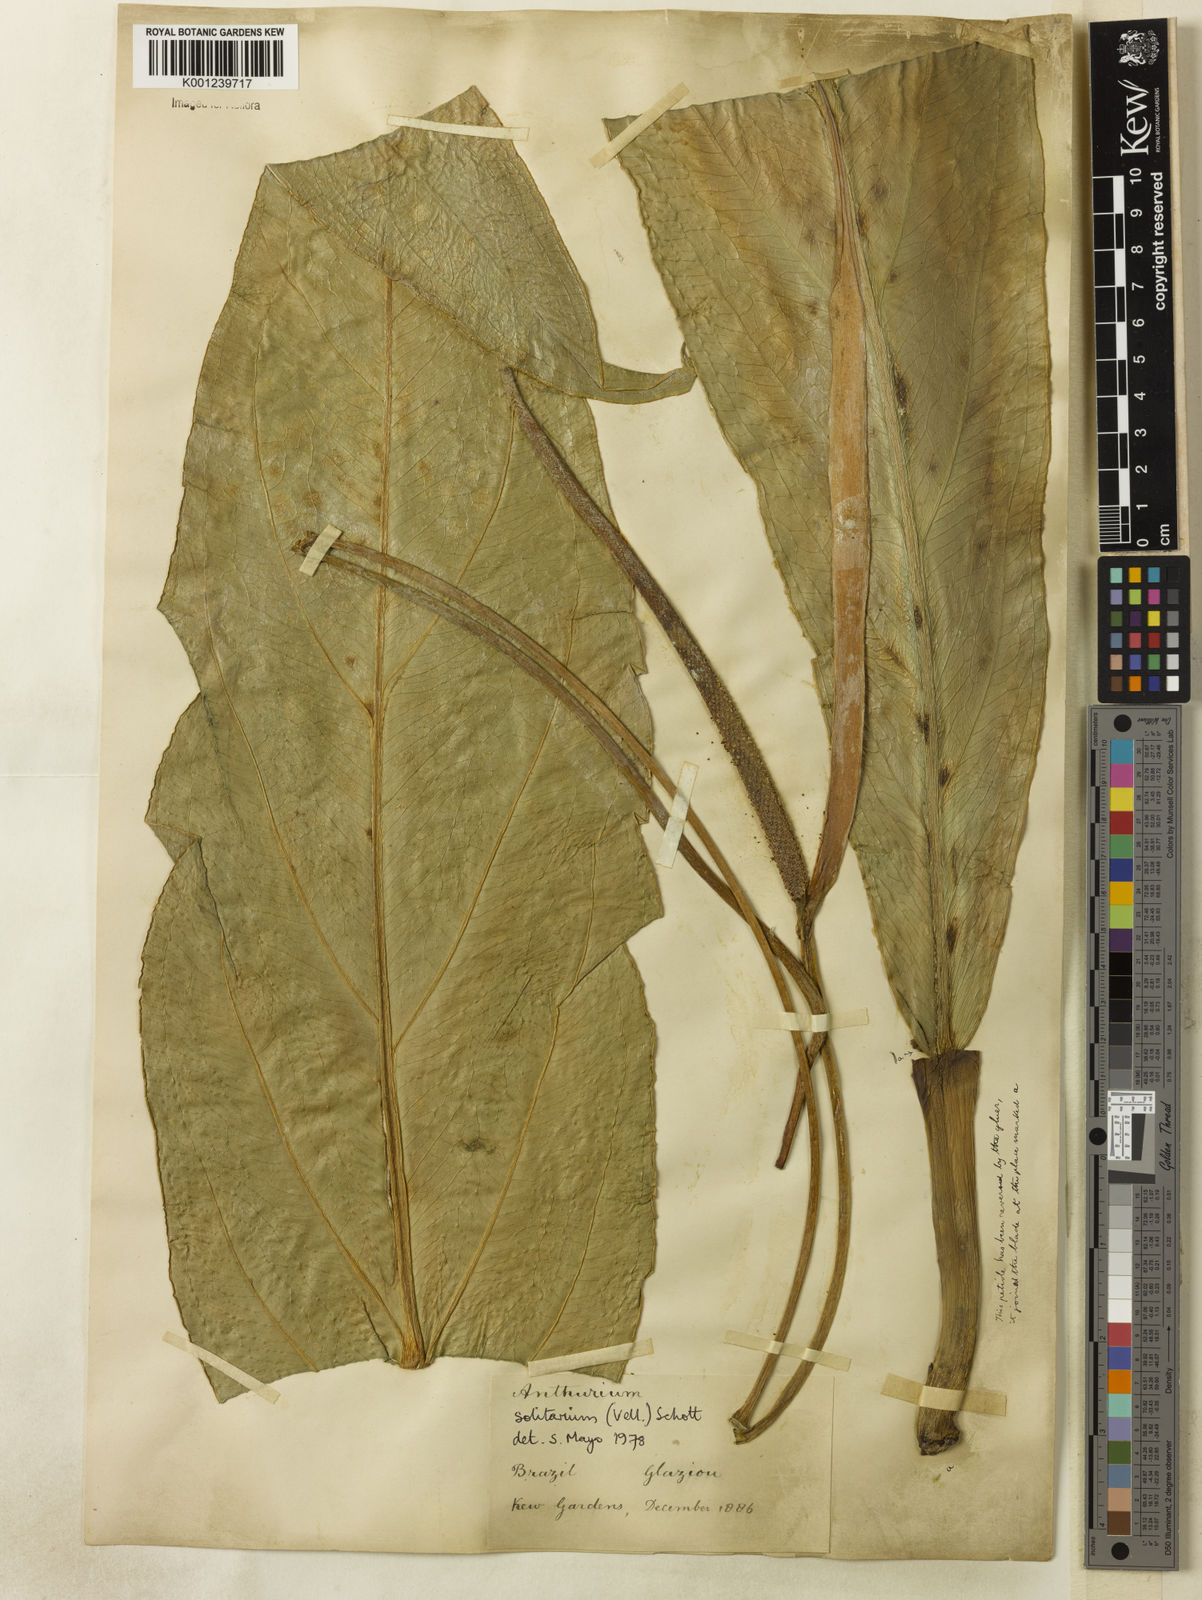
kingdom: Plantae
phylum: Tracheophyta
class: Liliopsida
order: Alismatales
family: Araceae
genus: Anthurium
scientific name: Anthurium solitarium
